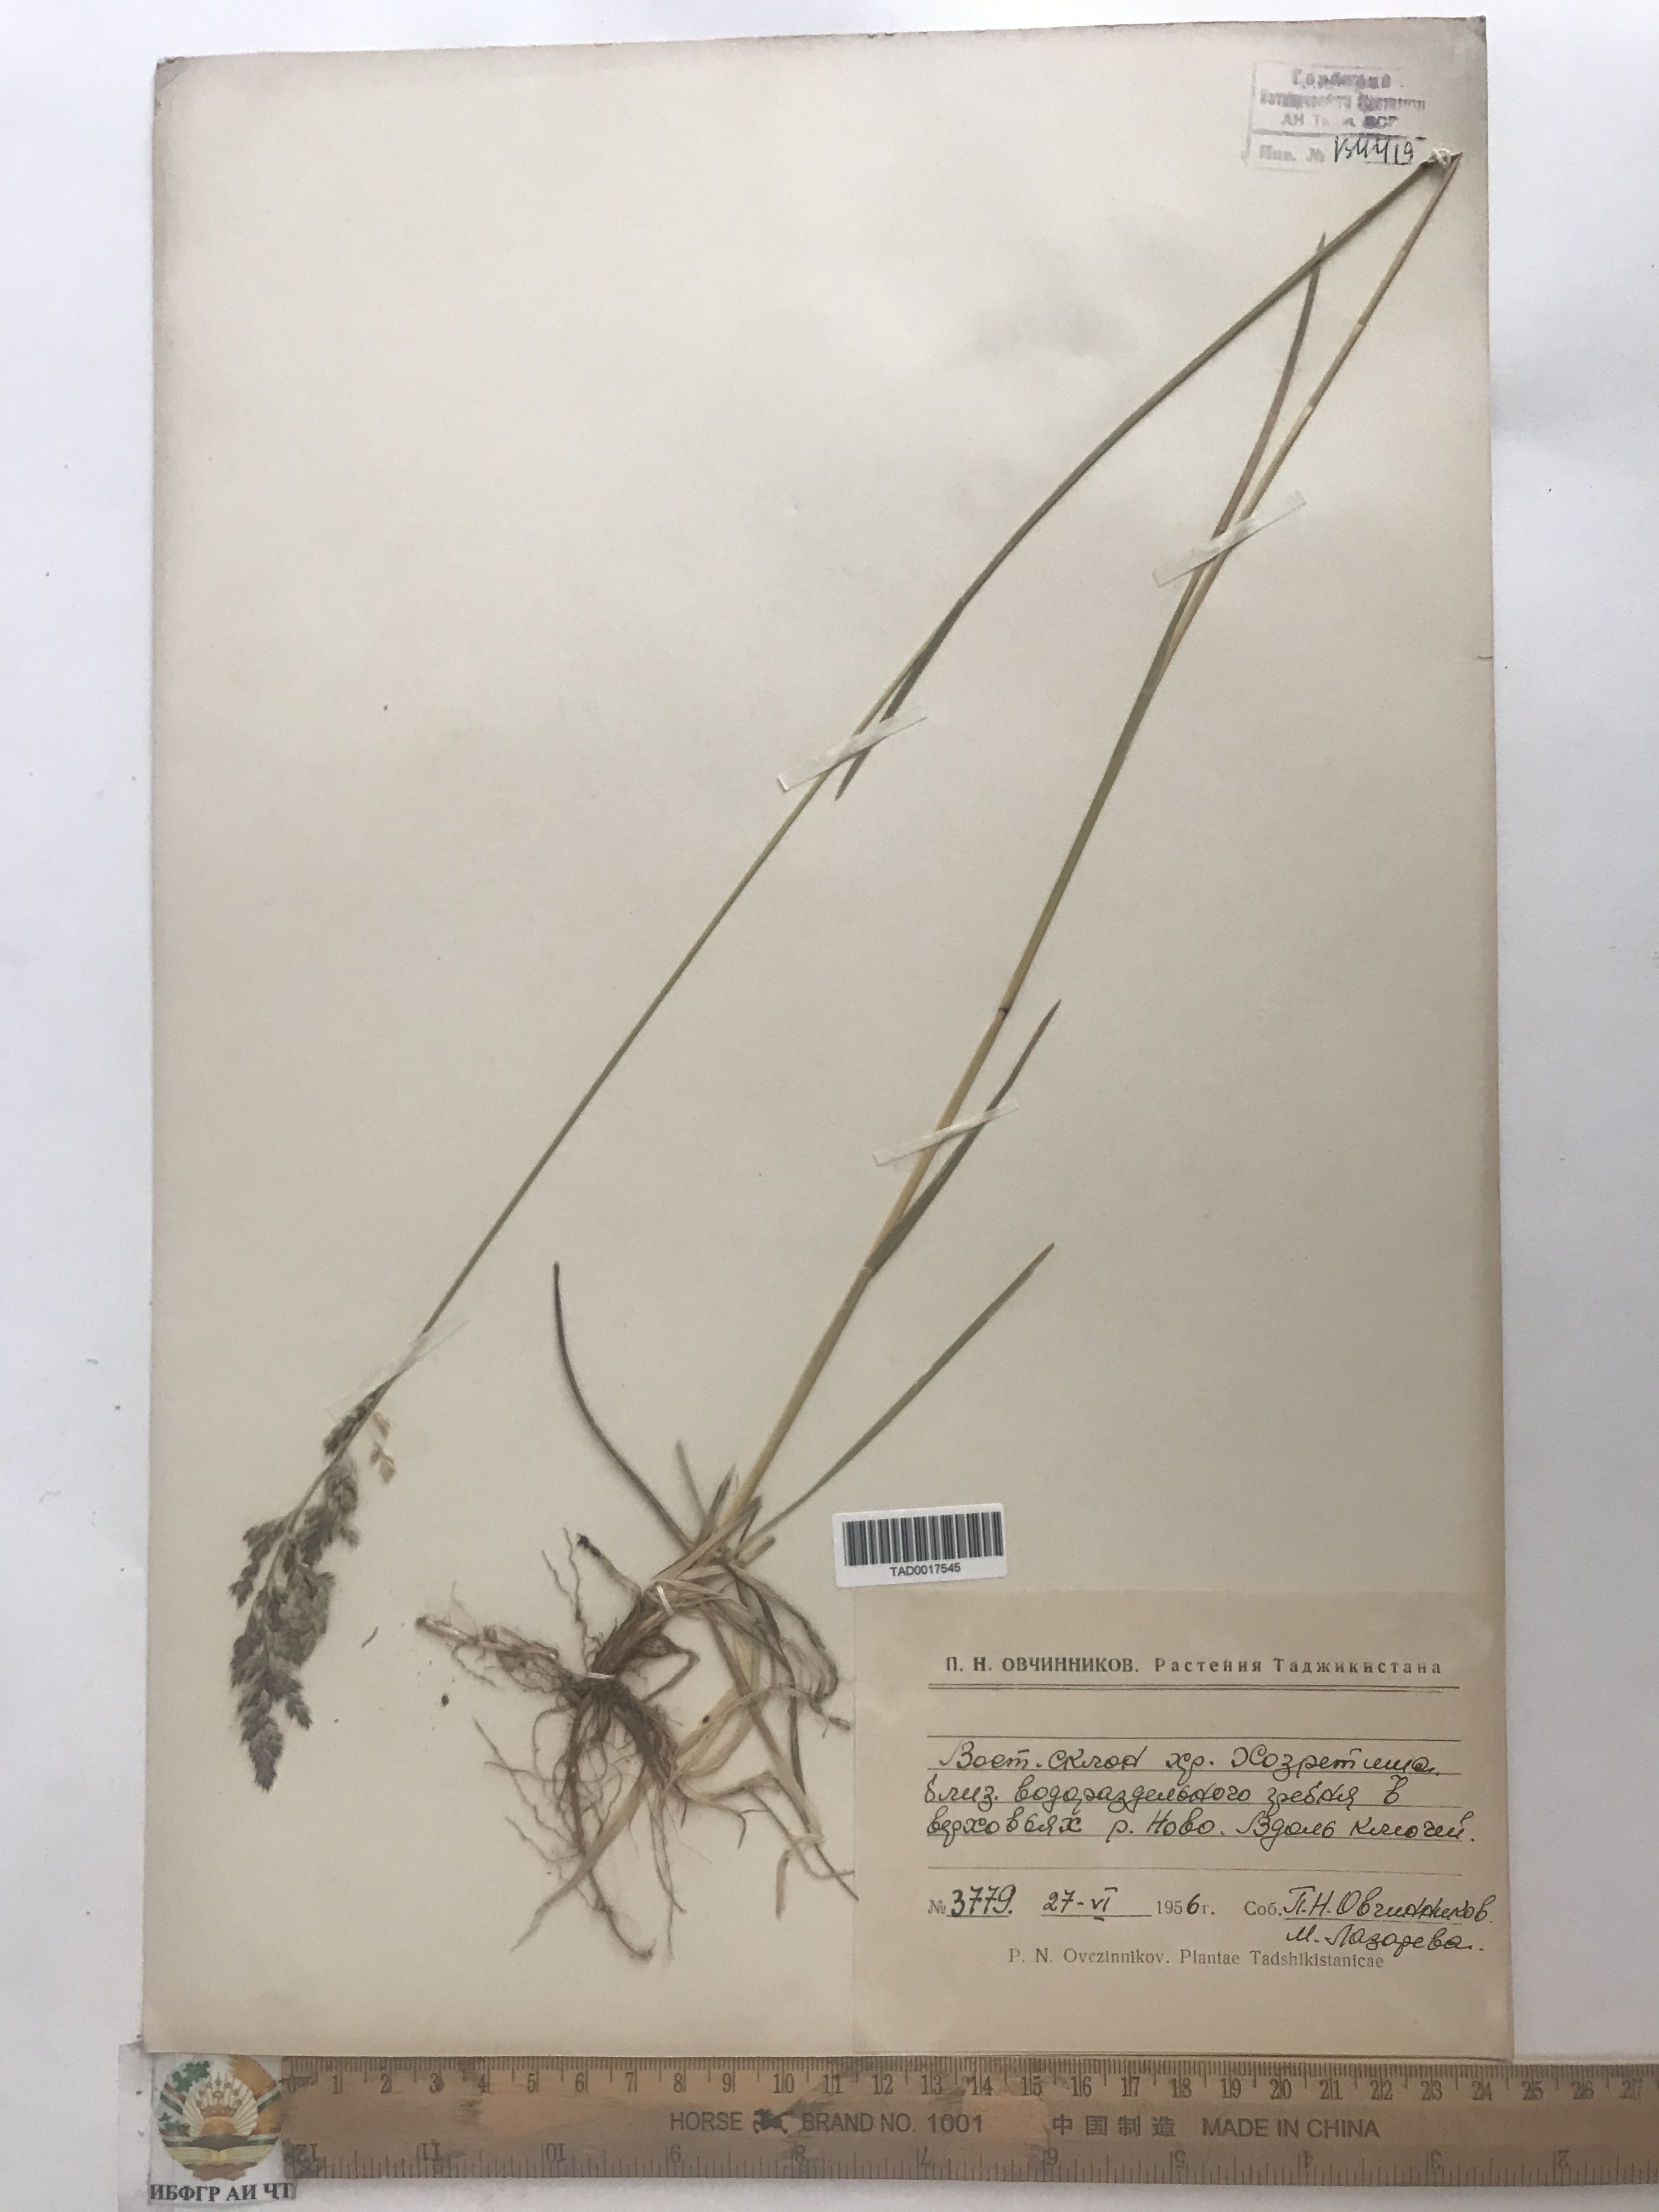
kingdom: Plantae
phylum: Tracheophyta
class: Liliopsida
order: Poales
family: Poaceae
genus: Poa
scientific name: Poa pratensis
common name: Kentucky bluegrass
